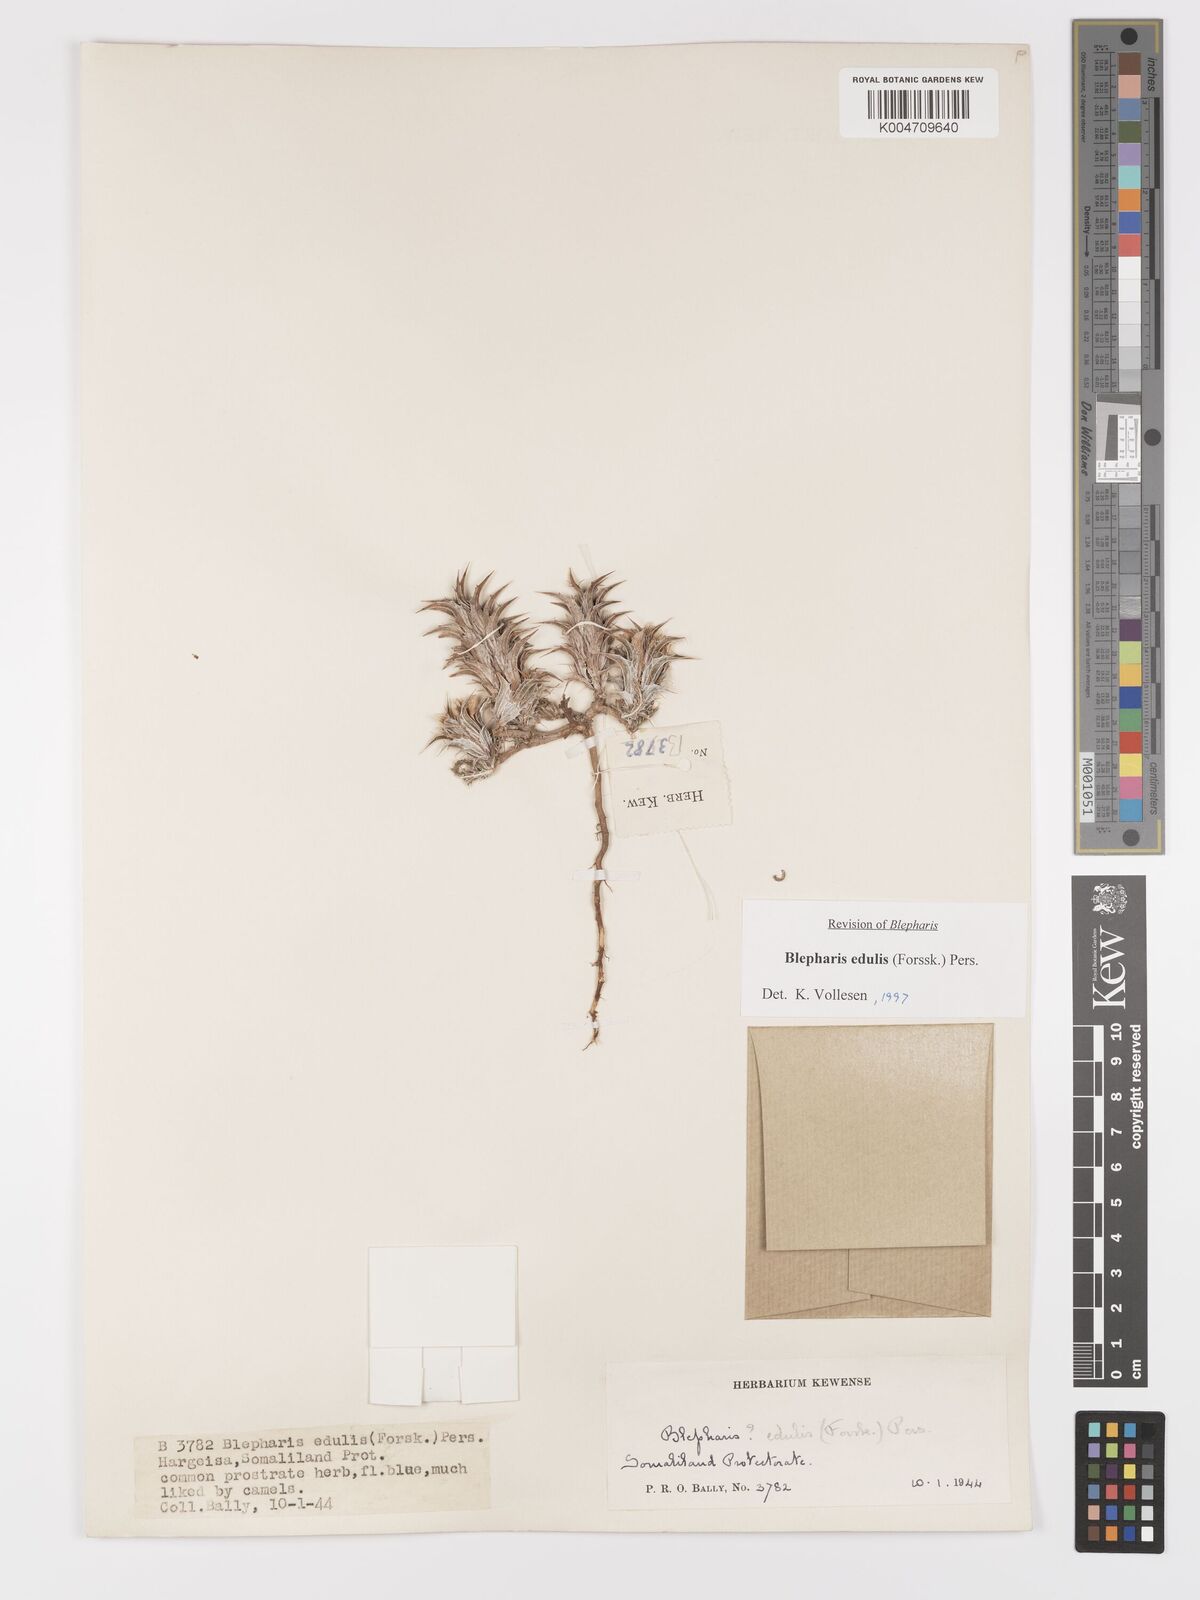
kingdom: Plantae
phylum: Tracheophyta
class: Magnoliopsida
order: Lamiales
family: Acanthaceae
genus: Blepharis
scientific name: Blepharis edulis
